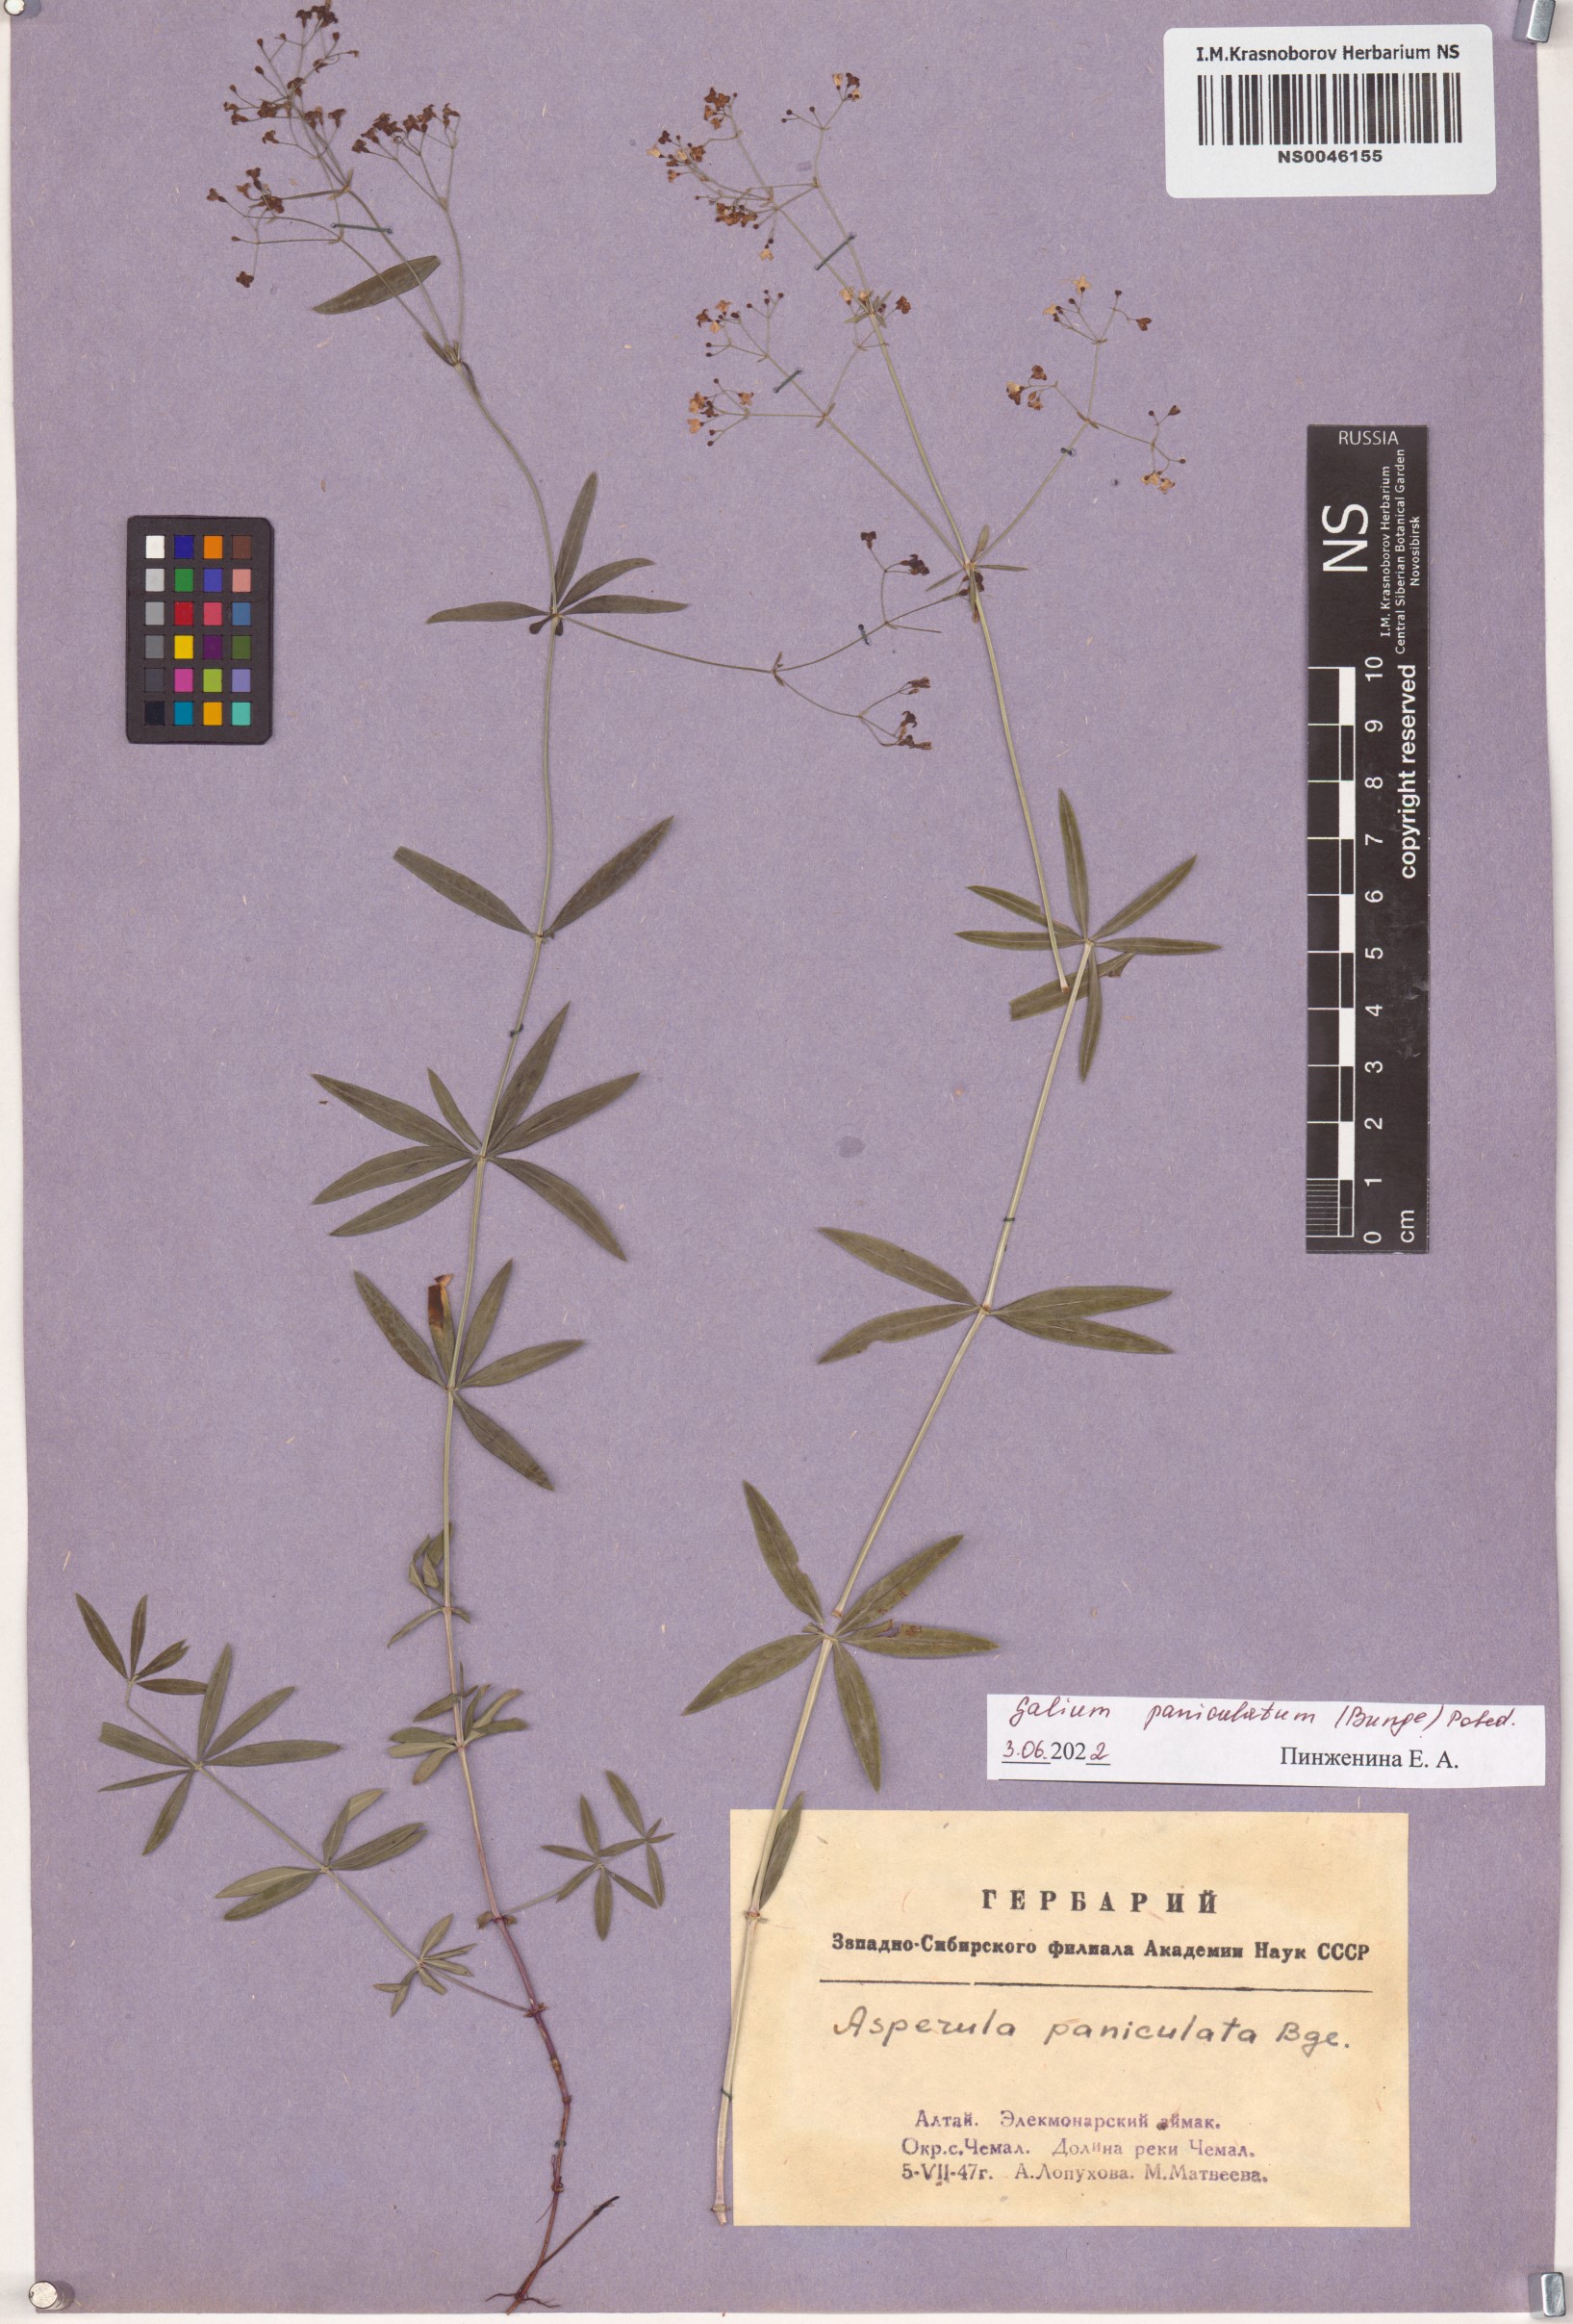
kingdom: Plantae
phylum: Tracheophyta
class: Magnoliopsida
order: Gentianales
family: Rubiaceae
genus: Galium
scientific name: Galium paniculatum
